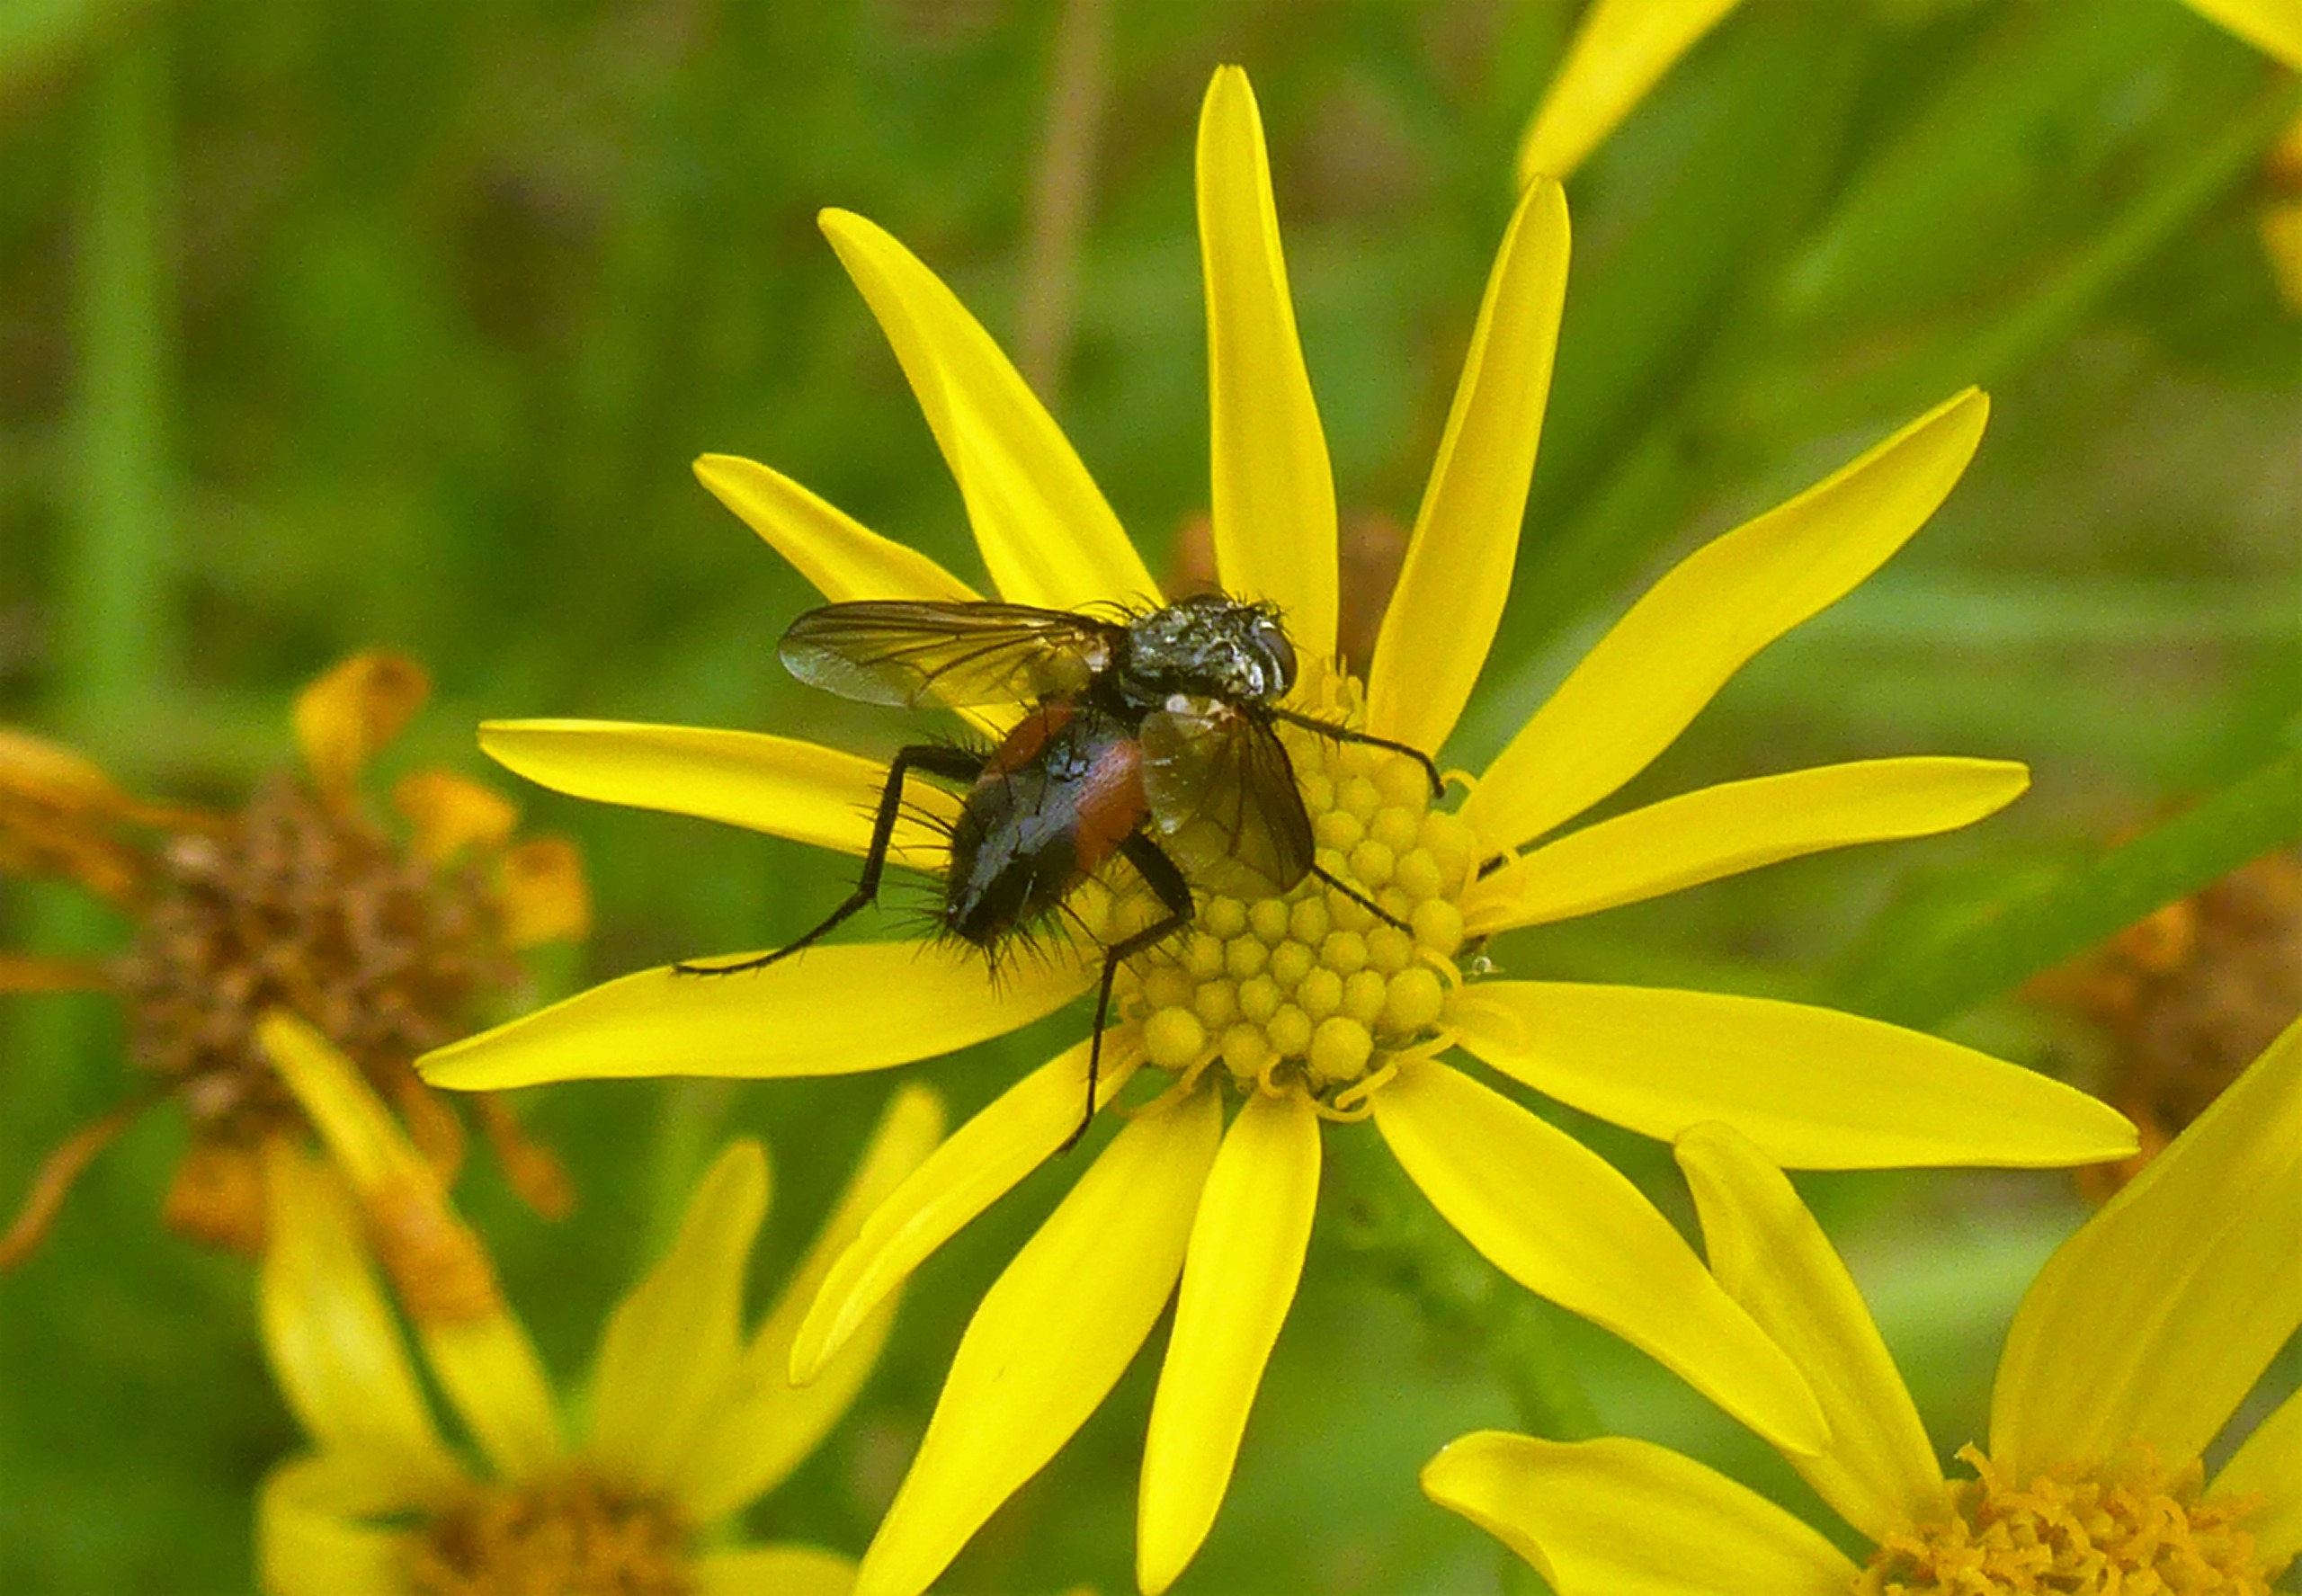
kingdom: Animalia
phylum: Arthropoda
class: Insecta
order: Diptera
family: Tachinidae
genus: Eriothrix
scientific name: Eriothrix rufomaculatus
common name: Rød snylteflue
